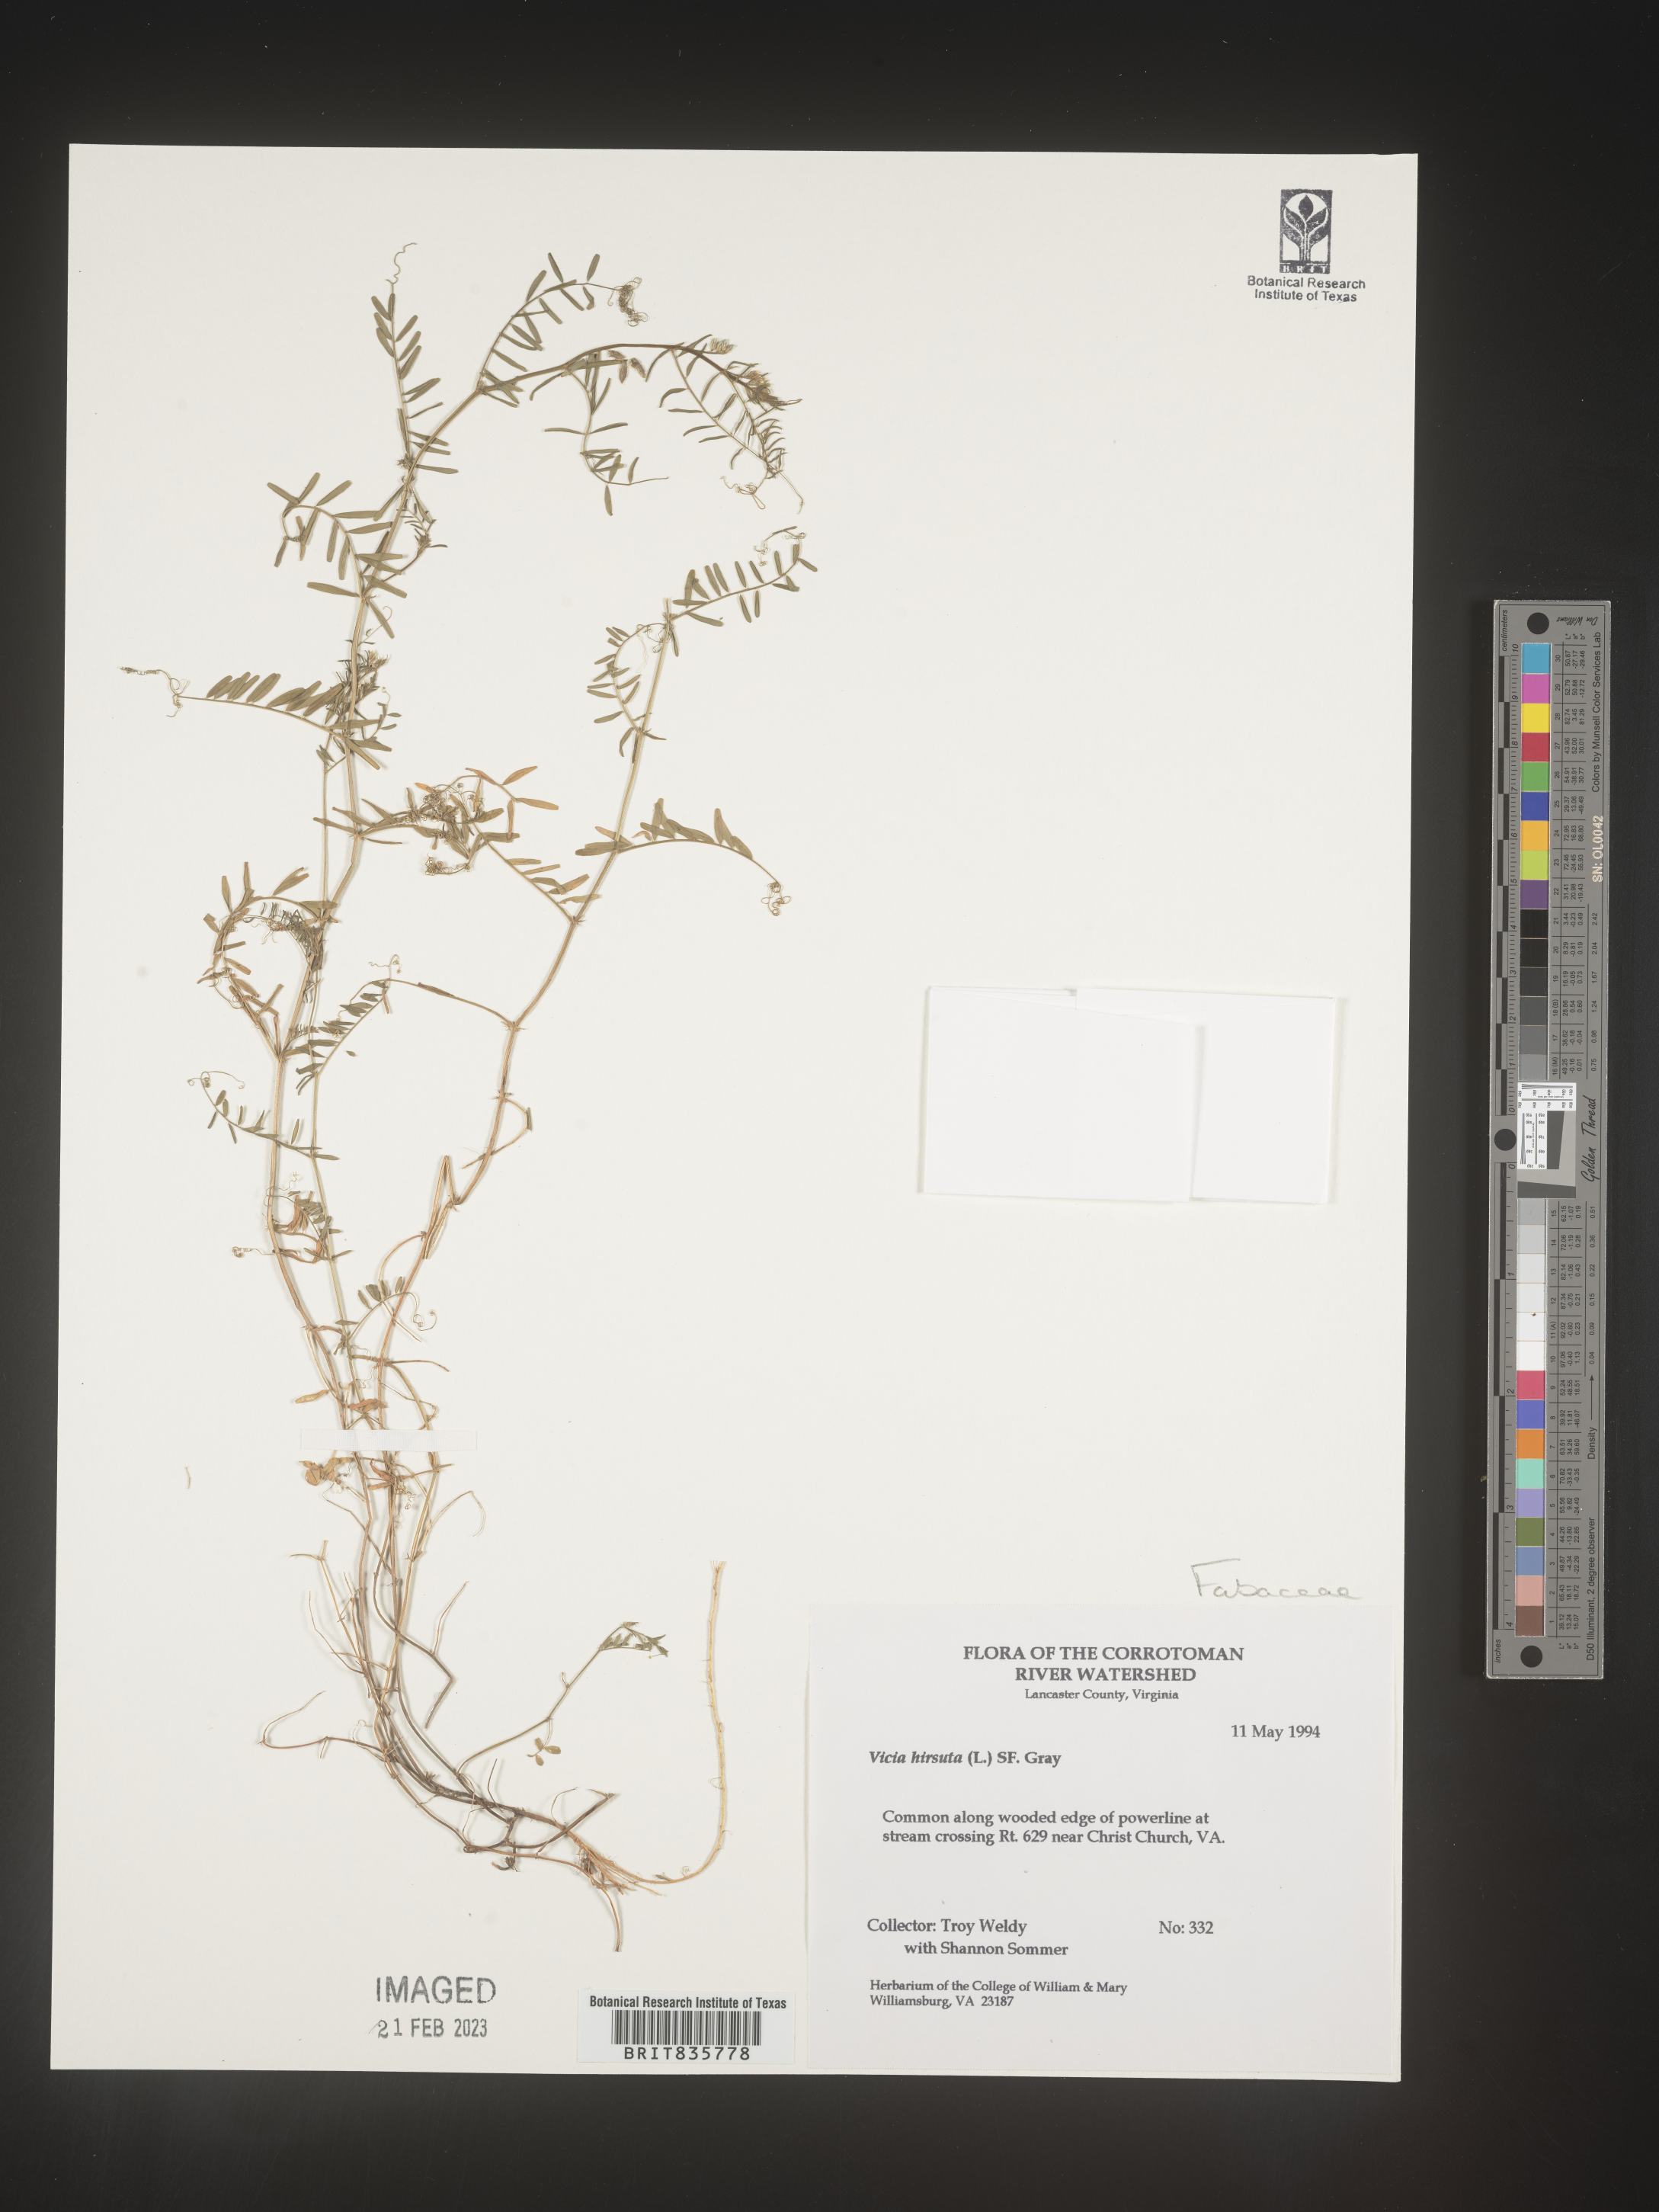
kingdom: Plantae
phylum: Tracheophyta
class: Magnoliopsida
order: Fabales
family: Fabaceae
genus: Vicia
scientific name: Vicia
